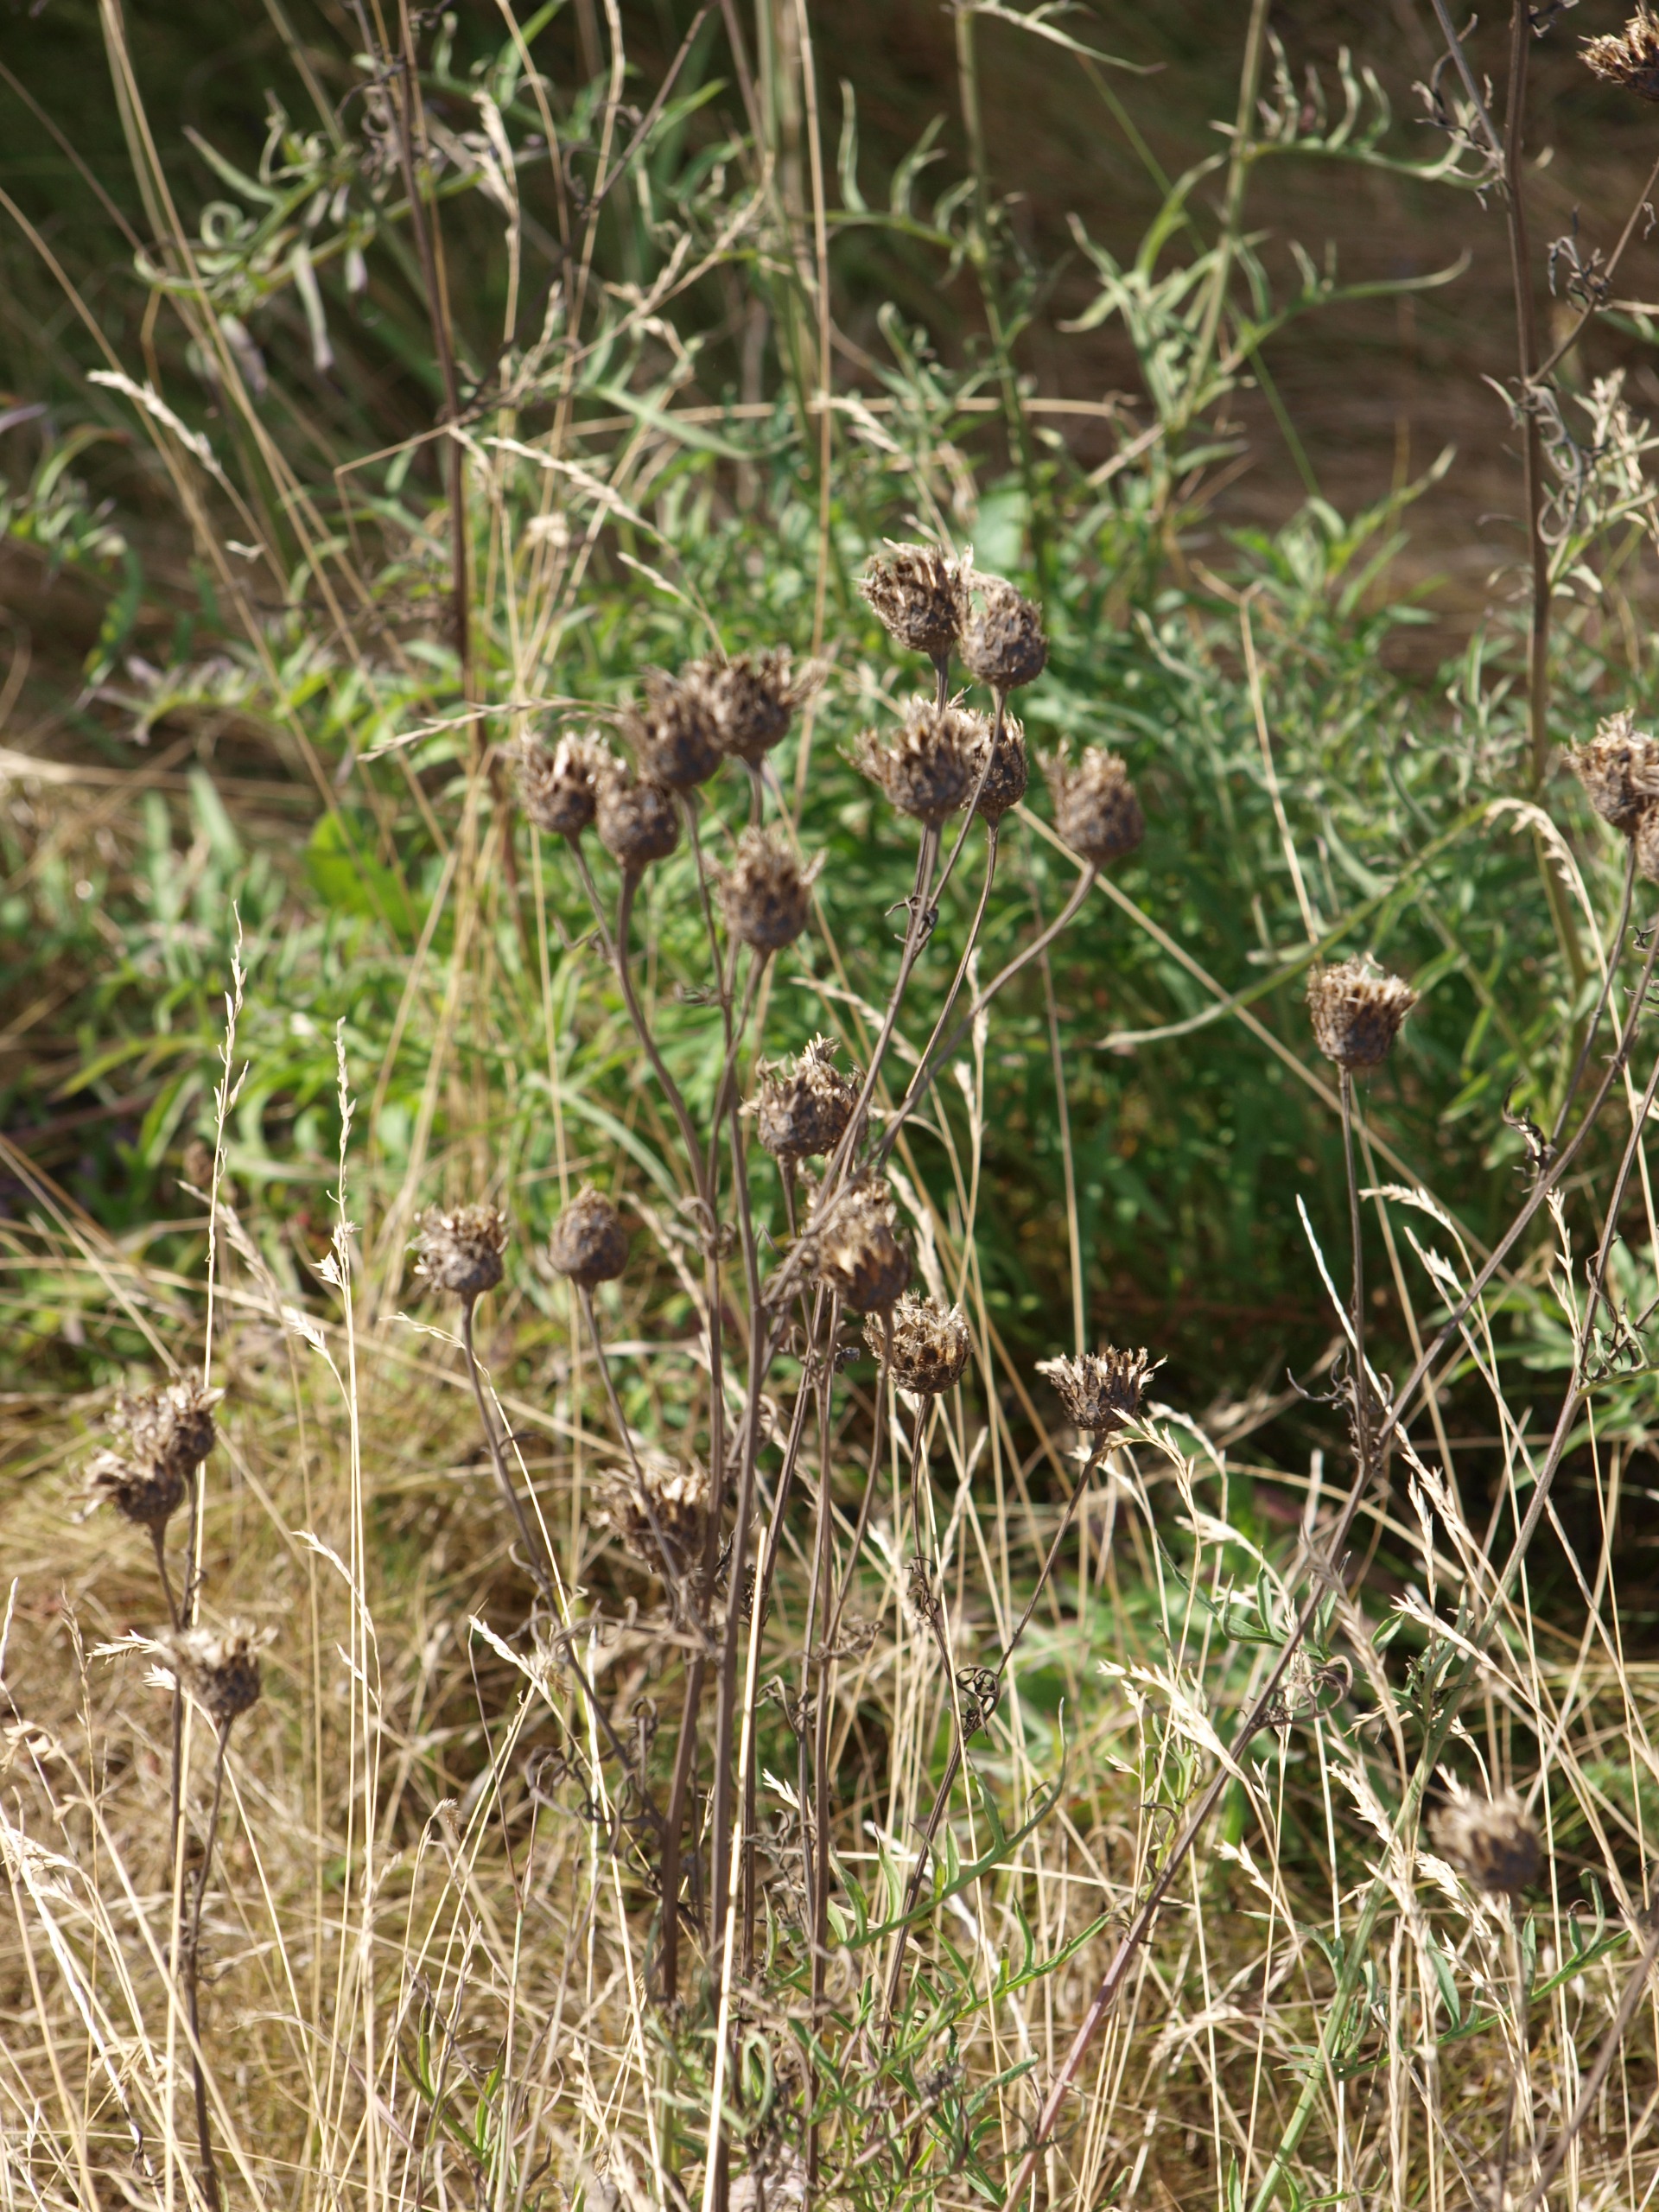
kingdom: Plantae
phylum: Tracheophyta
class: Magnoliopsida
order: Asterales
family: Asteraceae
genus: Centaurea
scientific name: Centaurea scabiosa
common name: Stor knopurt
